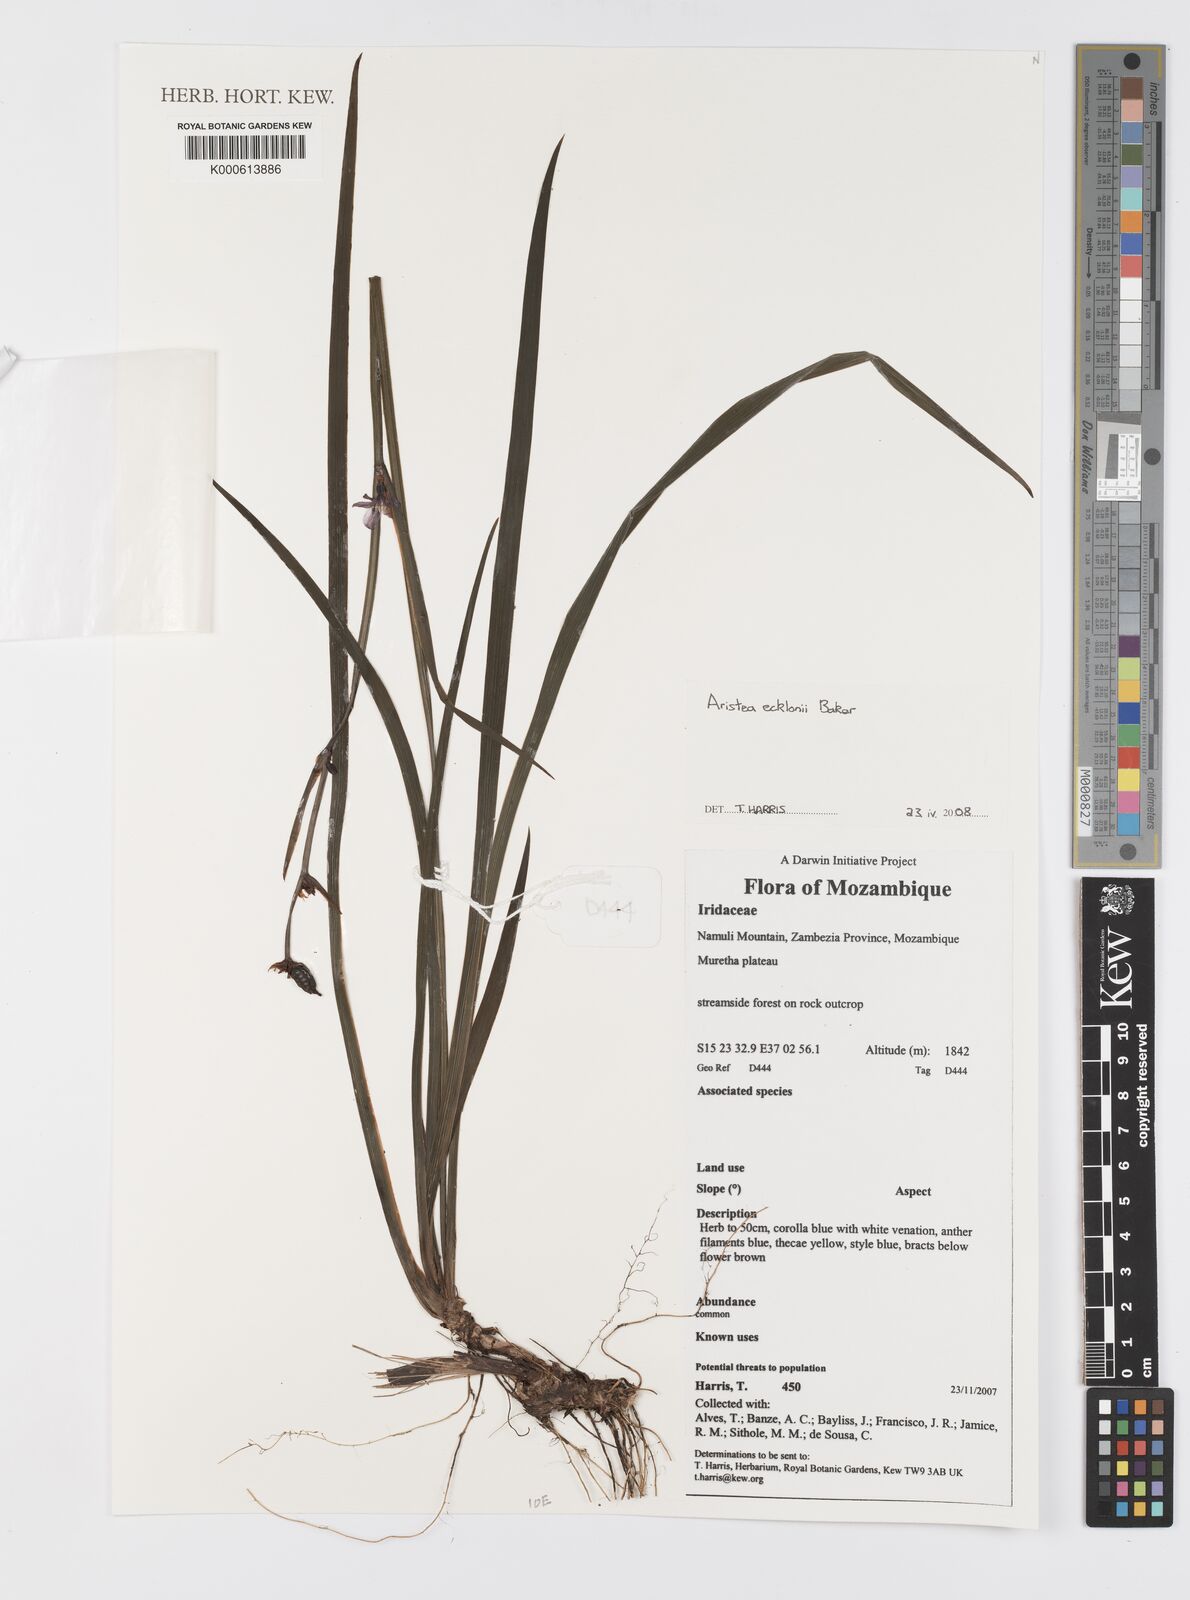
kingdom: Plantae
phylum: Tracheophyta
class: Liliopsida
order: Asparagales
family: Iridaceae
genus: Aristea
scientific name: Aristea ecklonii
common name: Blue corn-lily
